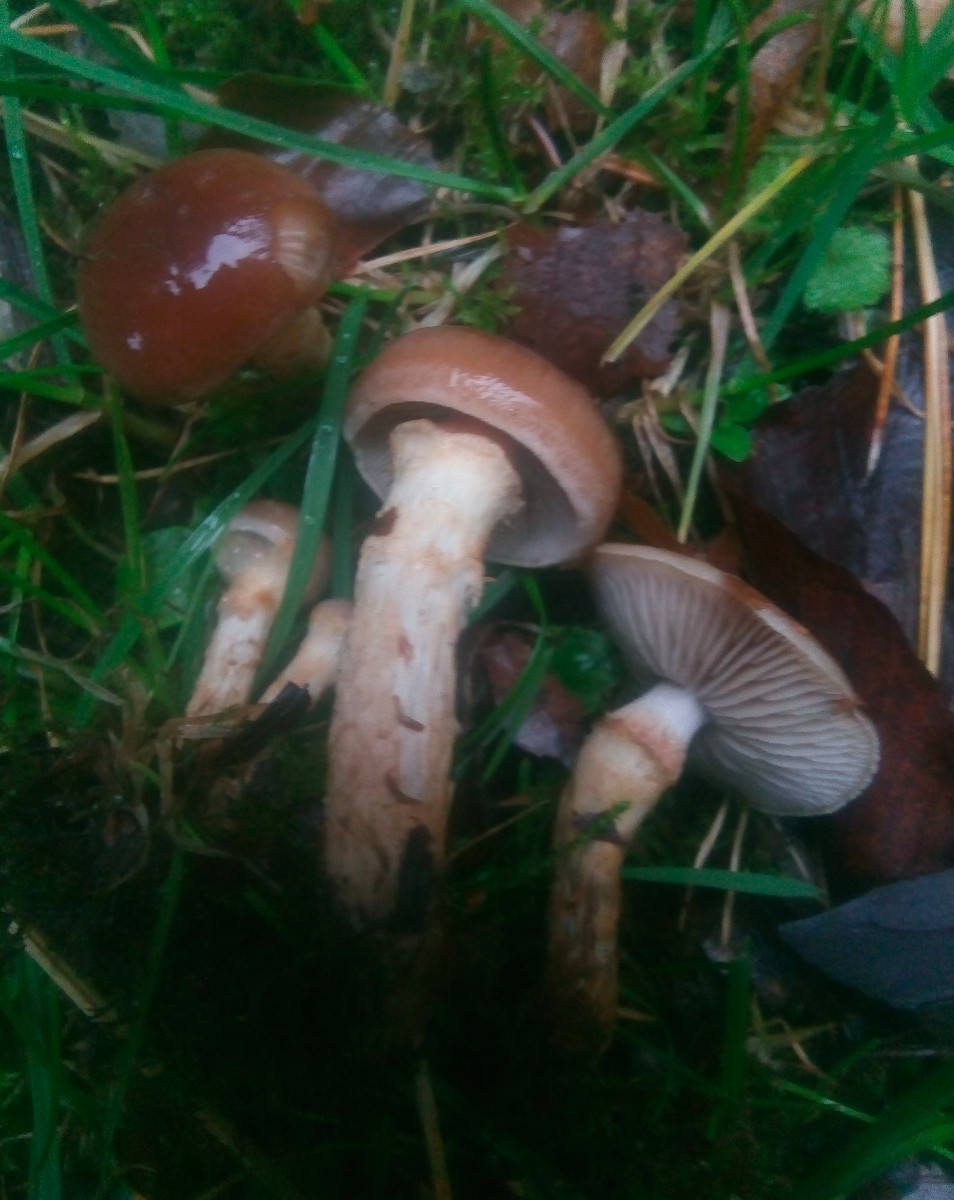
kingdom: Fungi
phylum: Basidiomycota
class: Agaricomycetes
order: Agaricales
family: Cortinariaceae
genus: Cortinarius
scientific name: Cortinarius trivialis
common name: brunslimet slørhat
